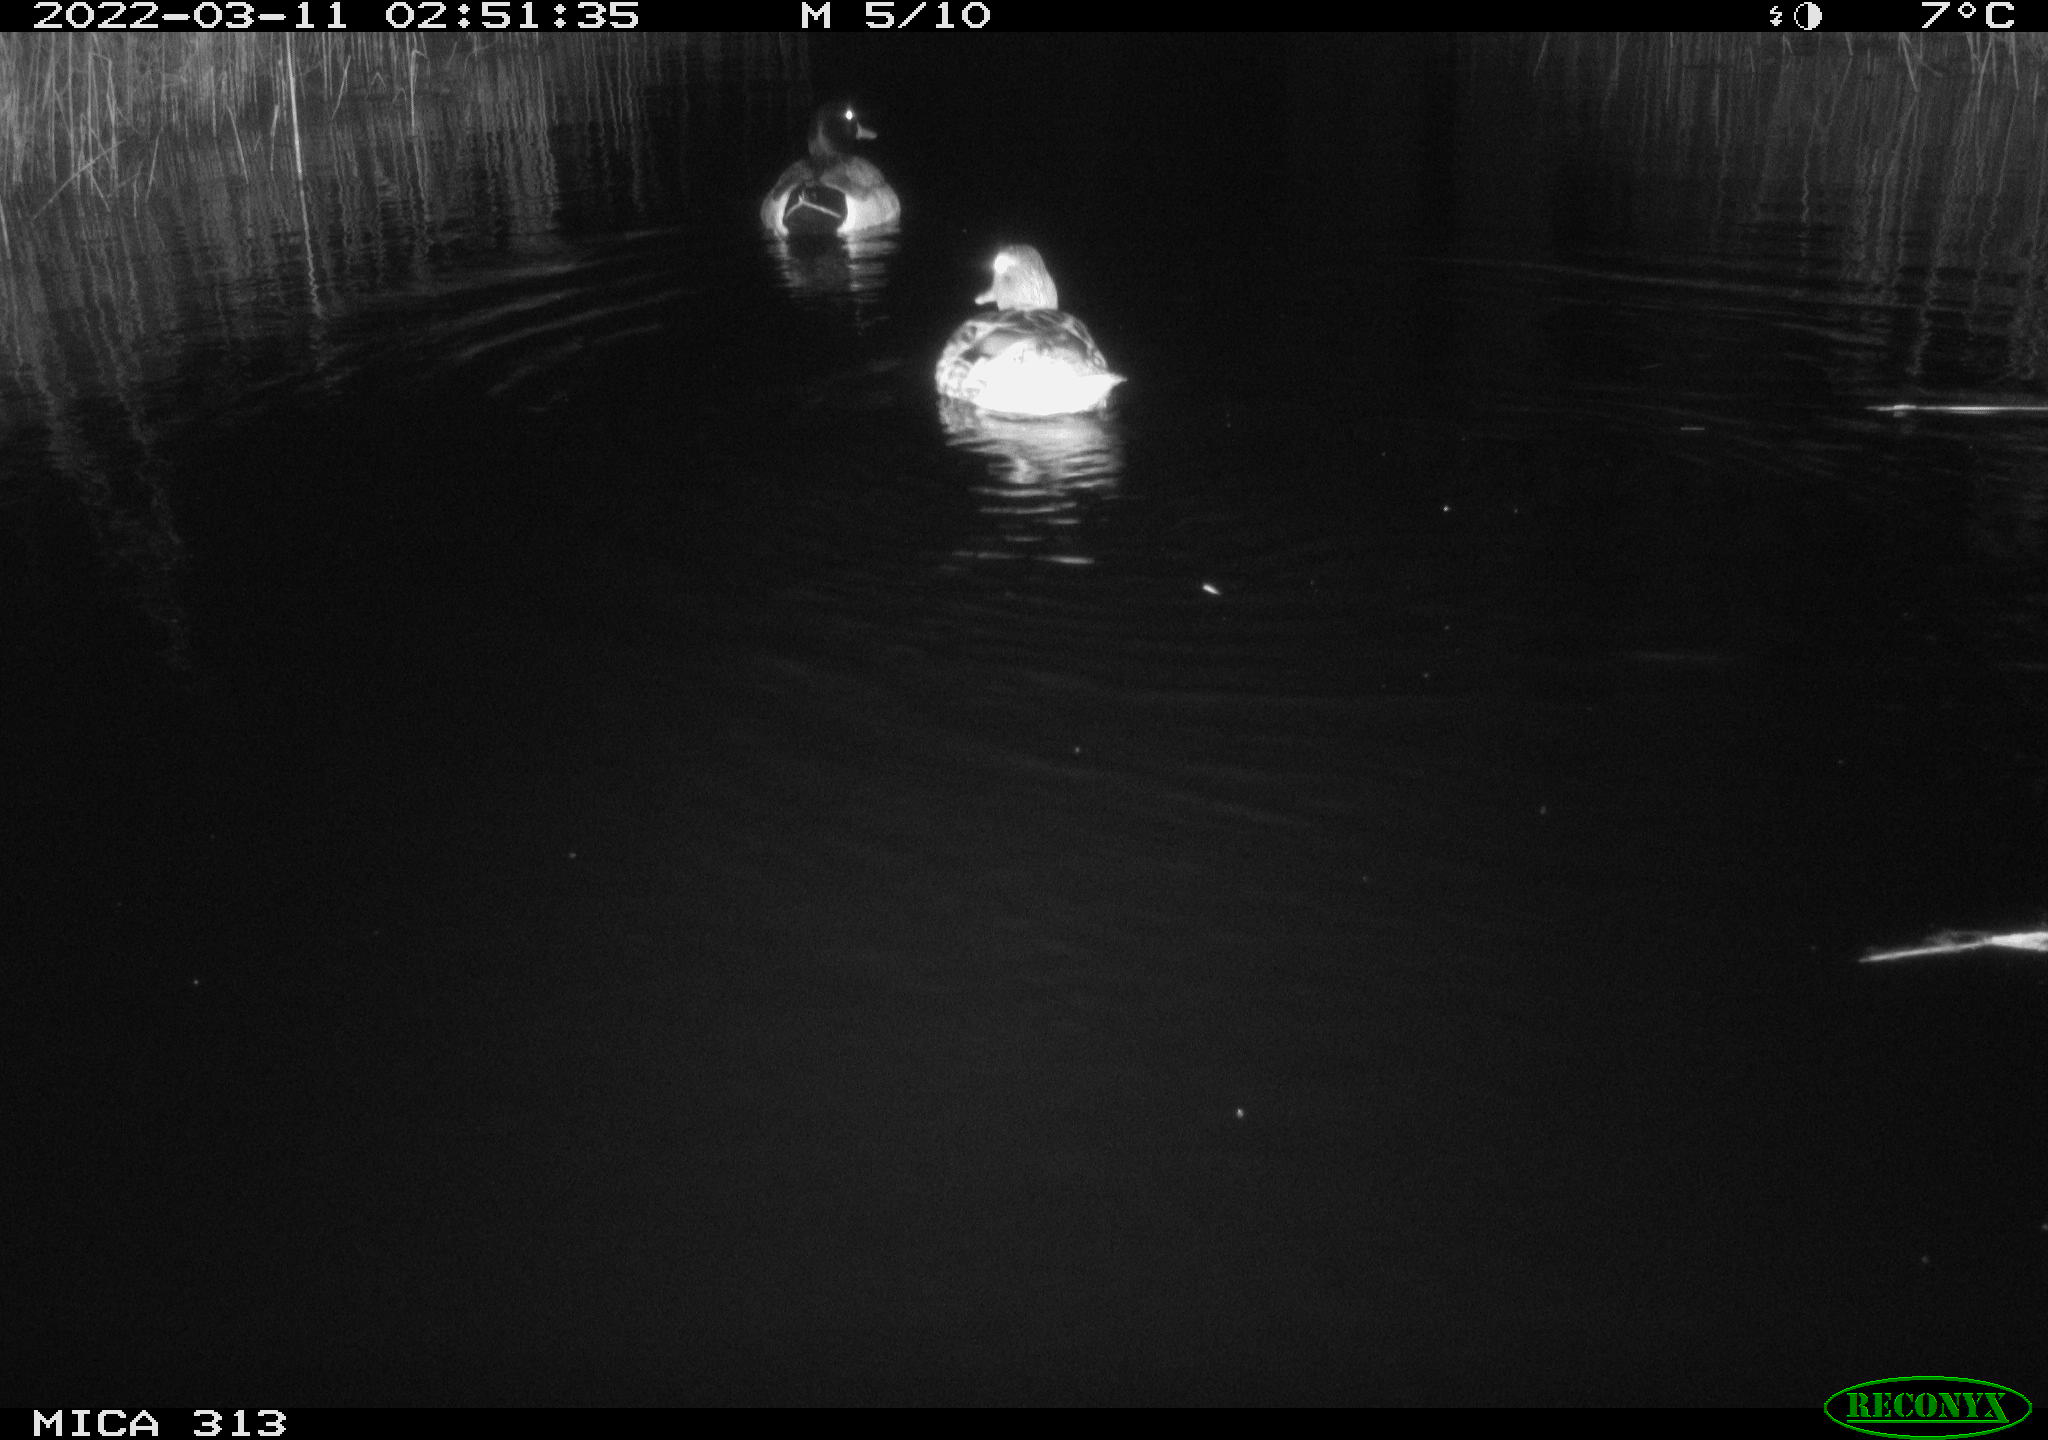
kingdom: Animalia
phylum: Chordata
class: Aves
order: Anseriformes
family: Anatidae
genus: Mareca
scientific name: Mareca strepera
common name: Gadwall
